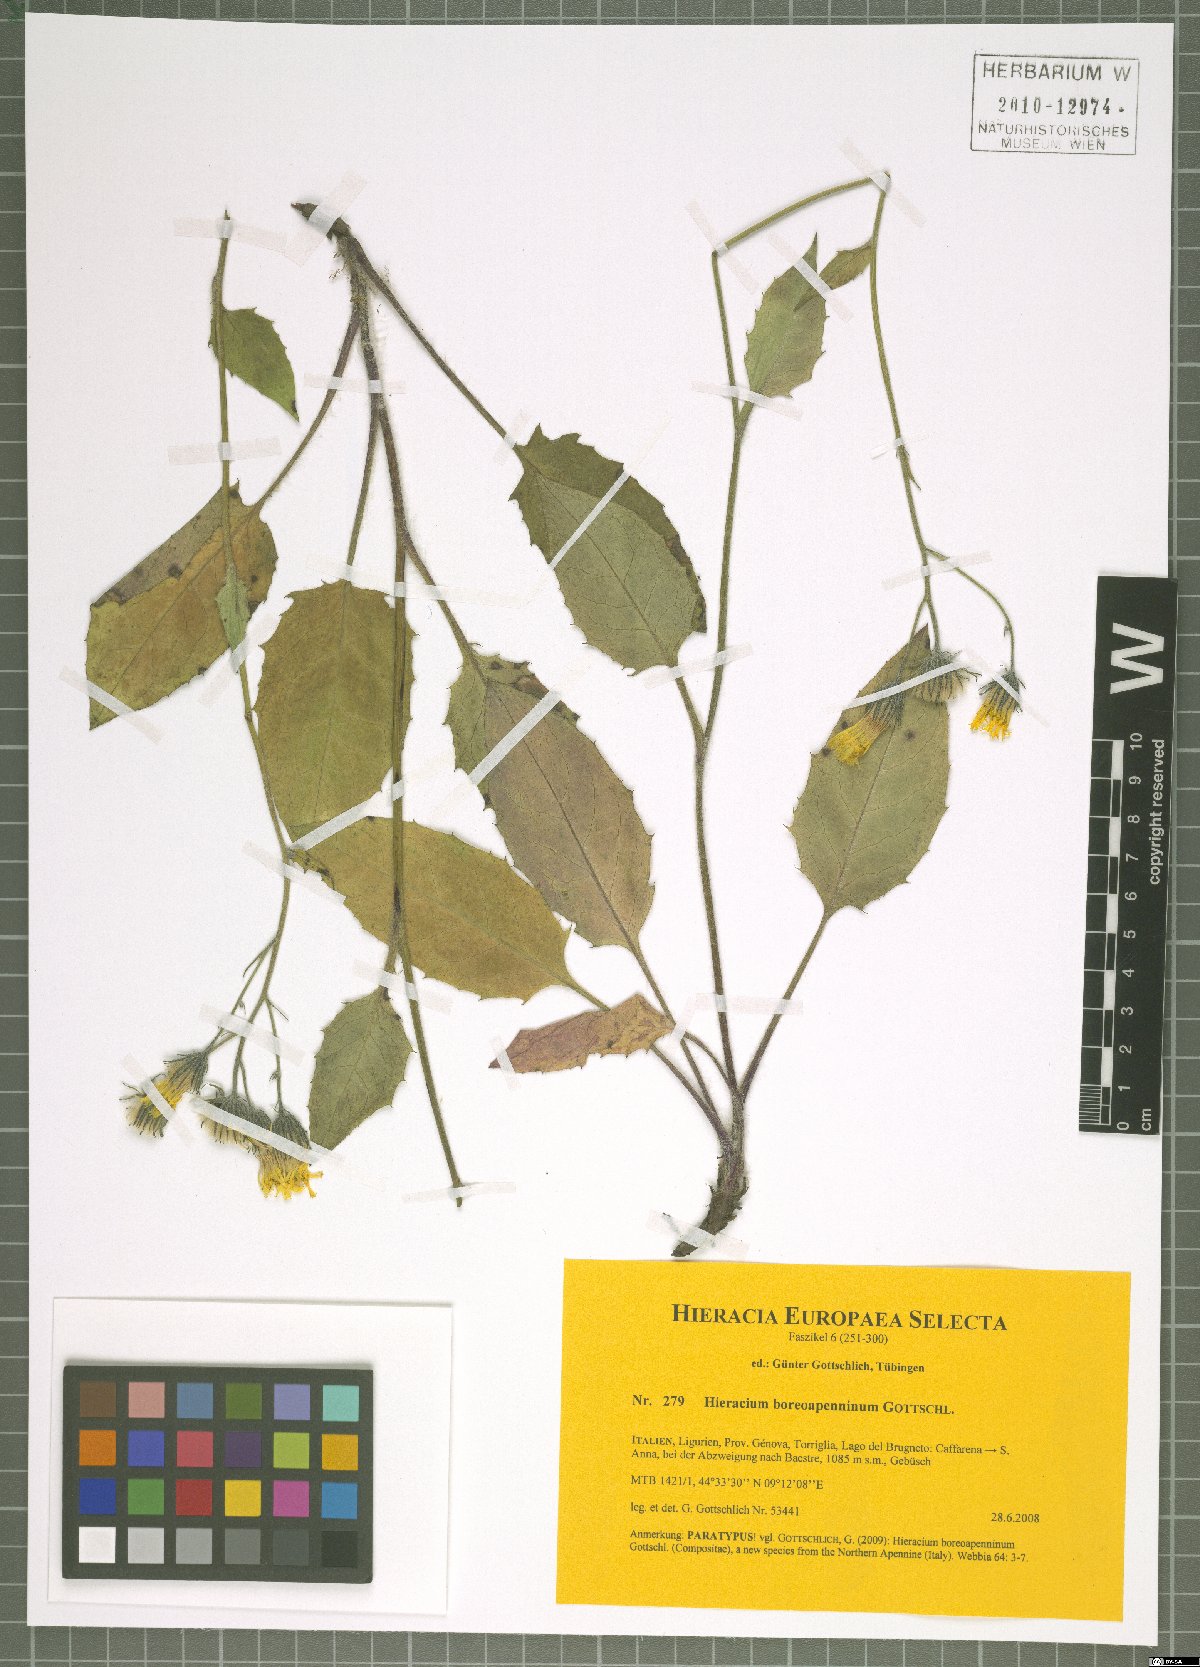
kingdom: Plantae
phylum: Tracheophyta
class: Magnoliopsida
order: Asterales
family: Asteraceae
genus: Hieracium
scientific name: Hieracium boreoapenninum
